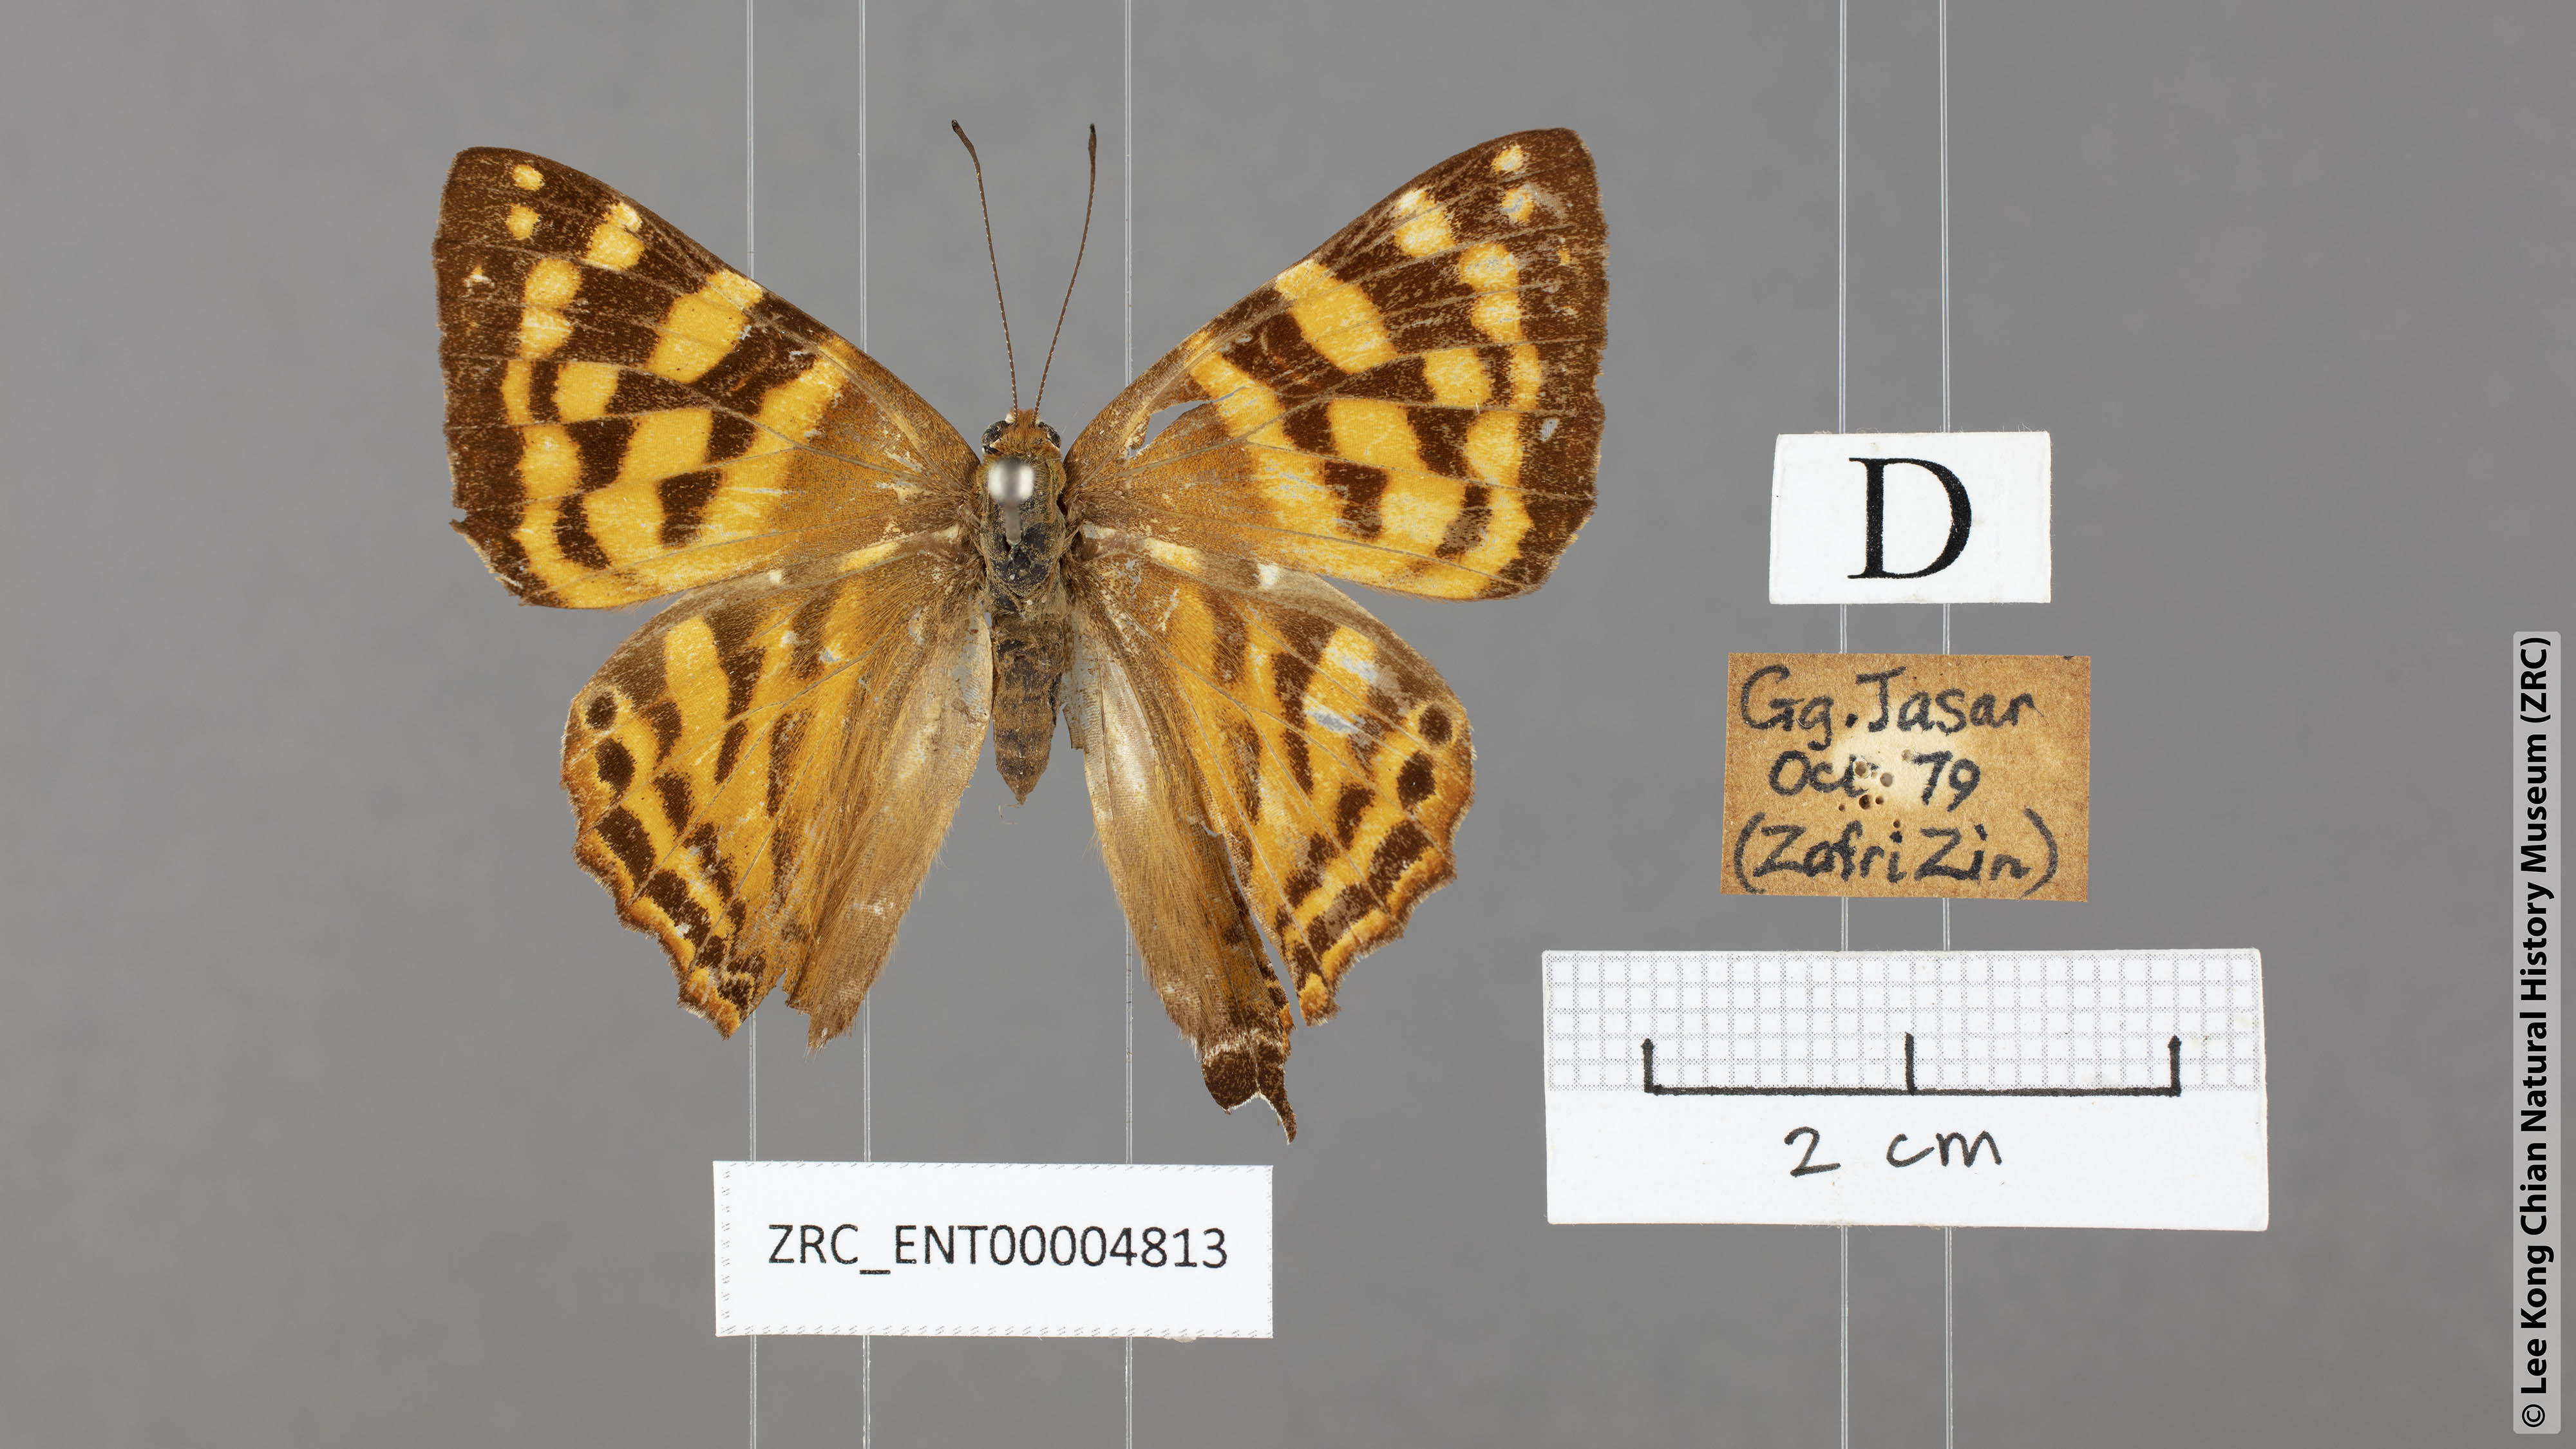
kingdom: Animalia
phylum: Arthropoda
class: Insecta
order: Lepidoptera
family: Lycaenidae
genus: Dodona
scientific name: Dodona deodata
